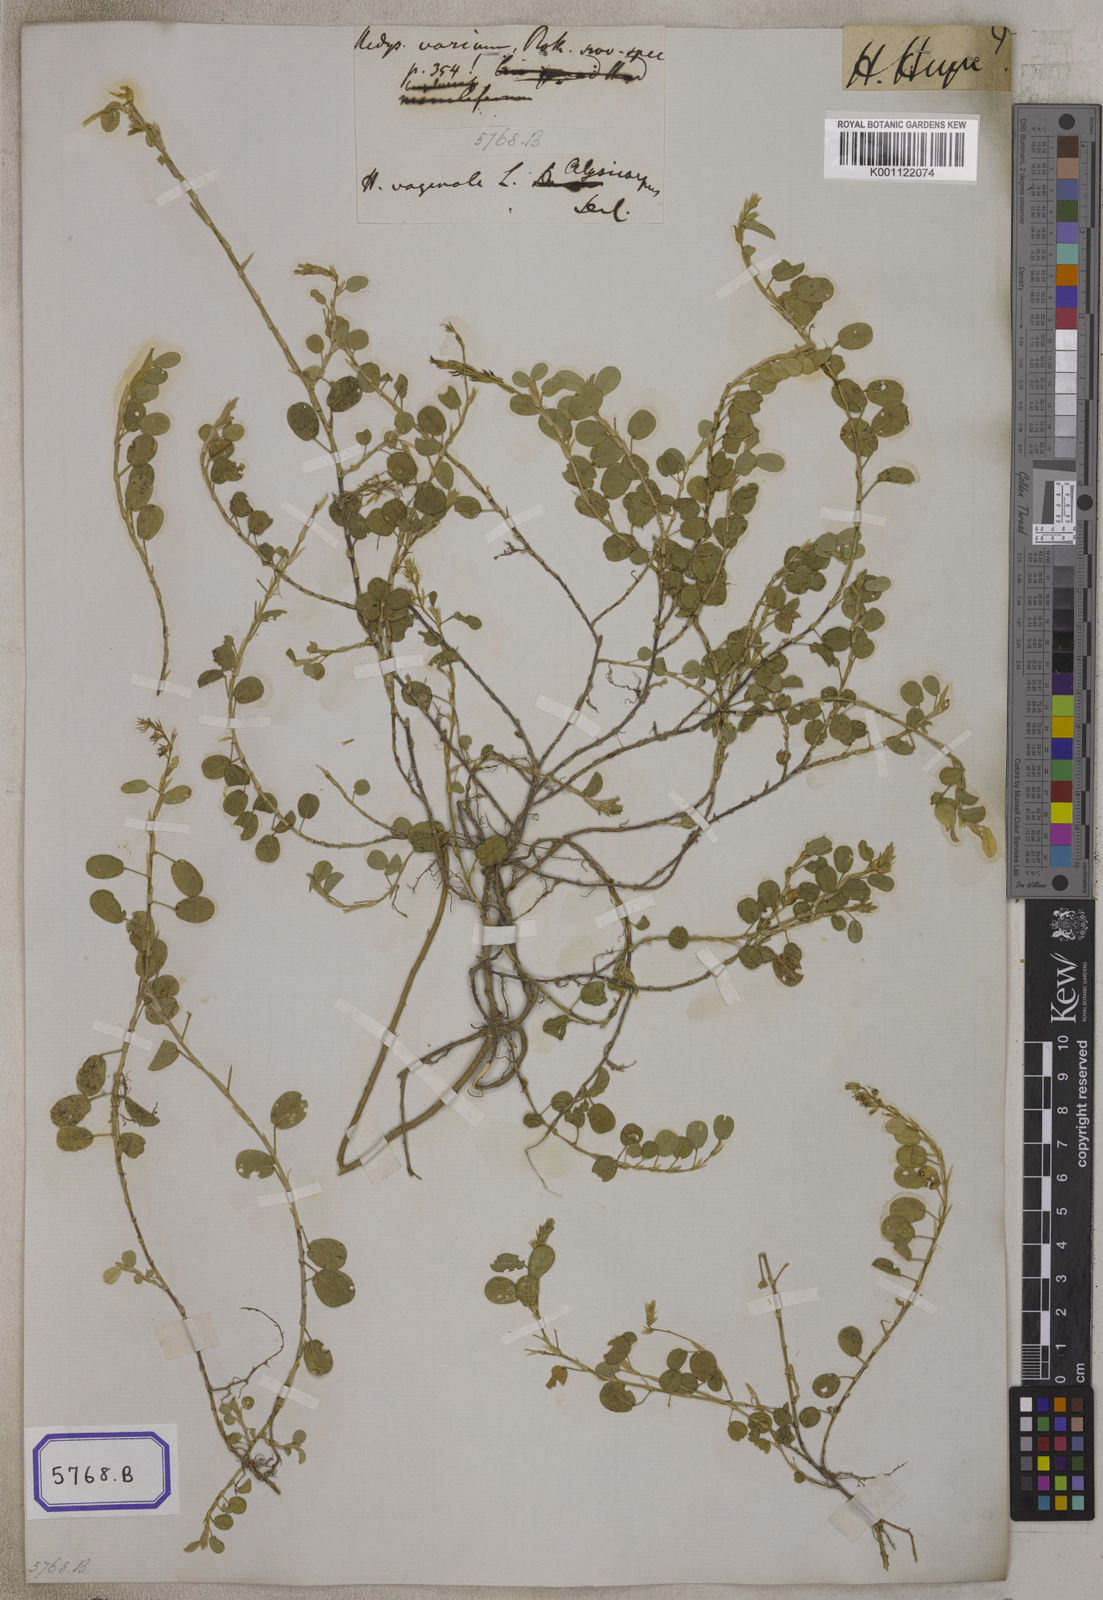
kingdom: Plantae
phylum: Tracheophyta
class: Magnoliopsida
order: Fabales
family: Fabaceae
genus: Alysicarpus
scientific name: Alysicarpus vaginalis
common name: White moneywort
